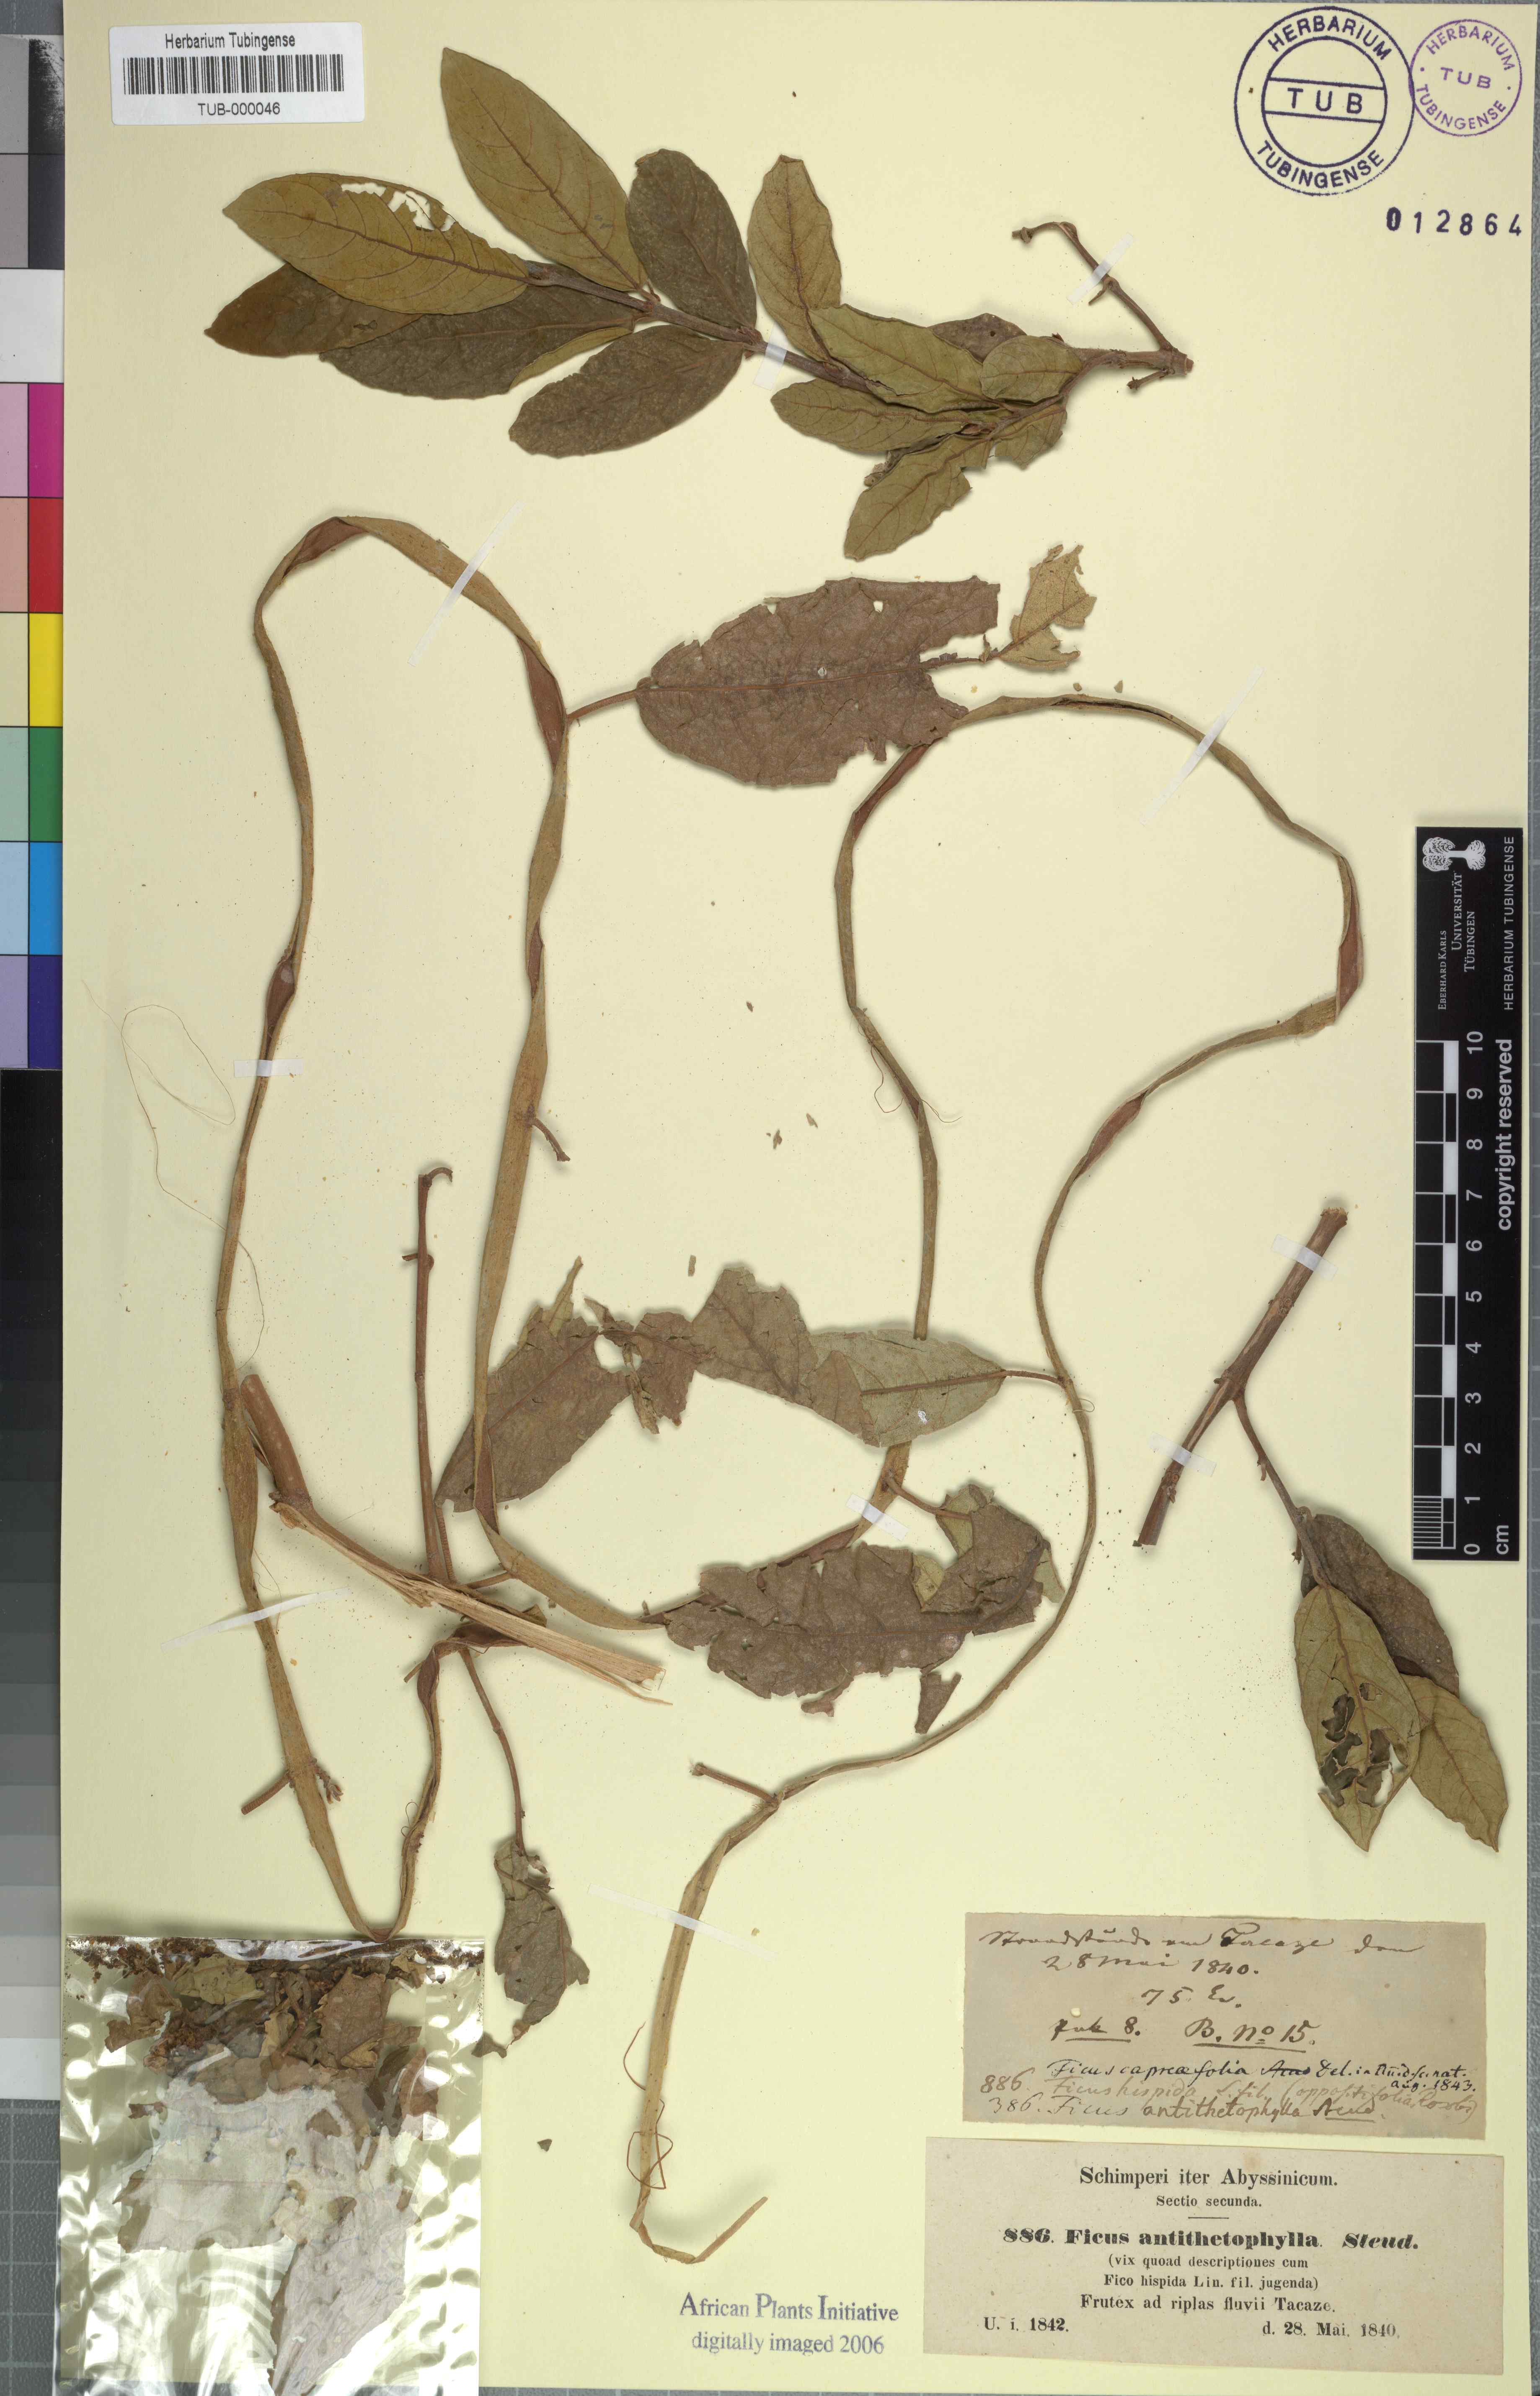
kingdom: Plantae
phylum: Tracheophyta
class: Magnoliopsida
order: Rosales
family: Moraceae
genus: Ficus
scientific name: Ficus capreifolia
